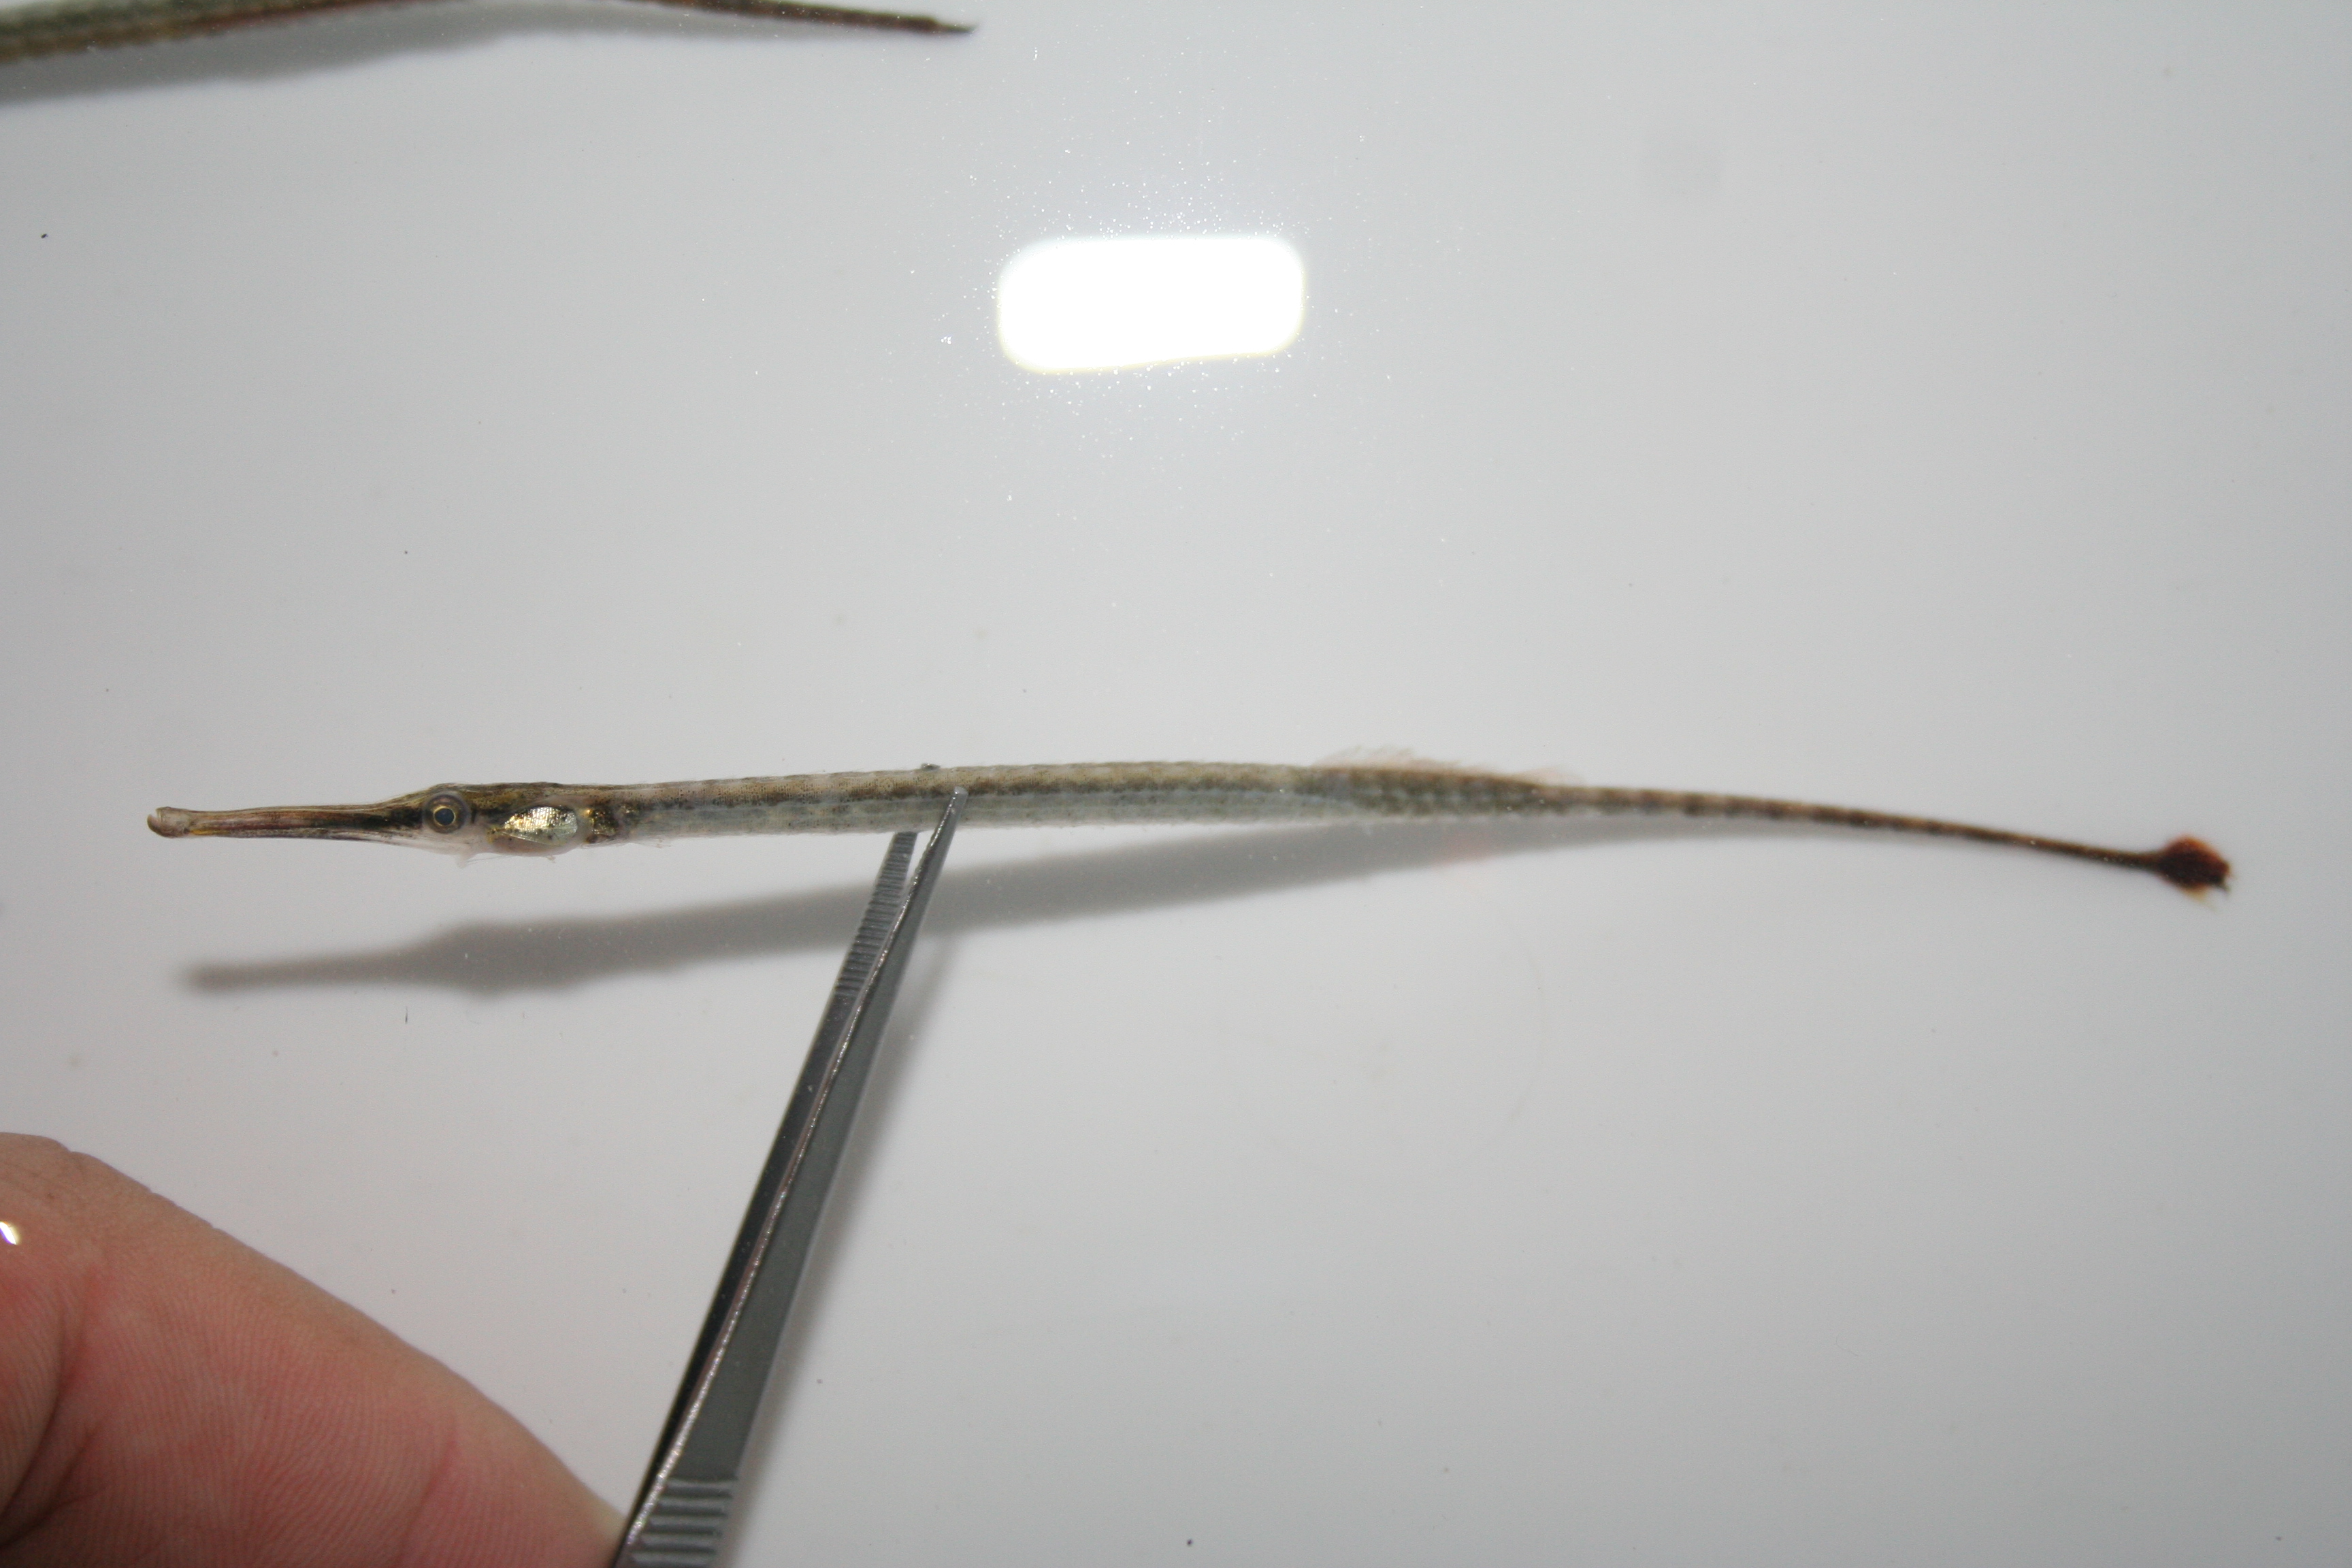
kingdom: Animalia
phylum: Chordata
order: Syngnathiformes
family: Syngnathidae
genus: Microphis
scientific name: Microphis aculeatus
